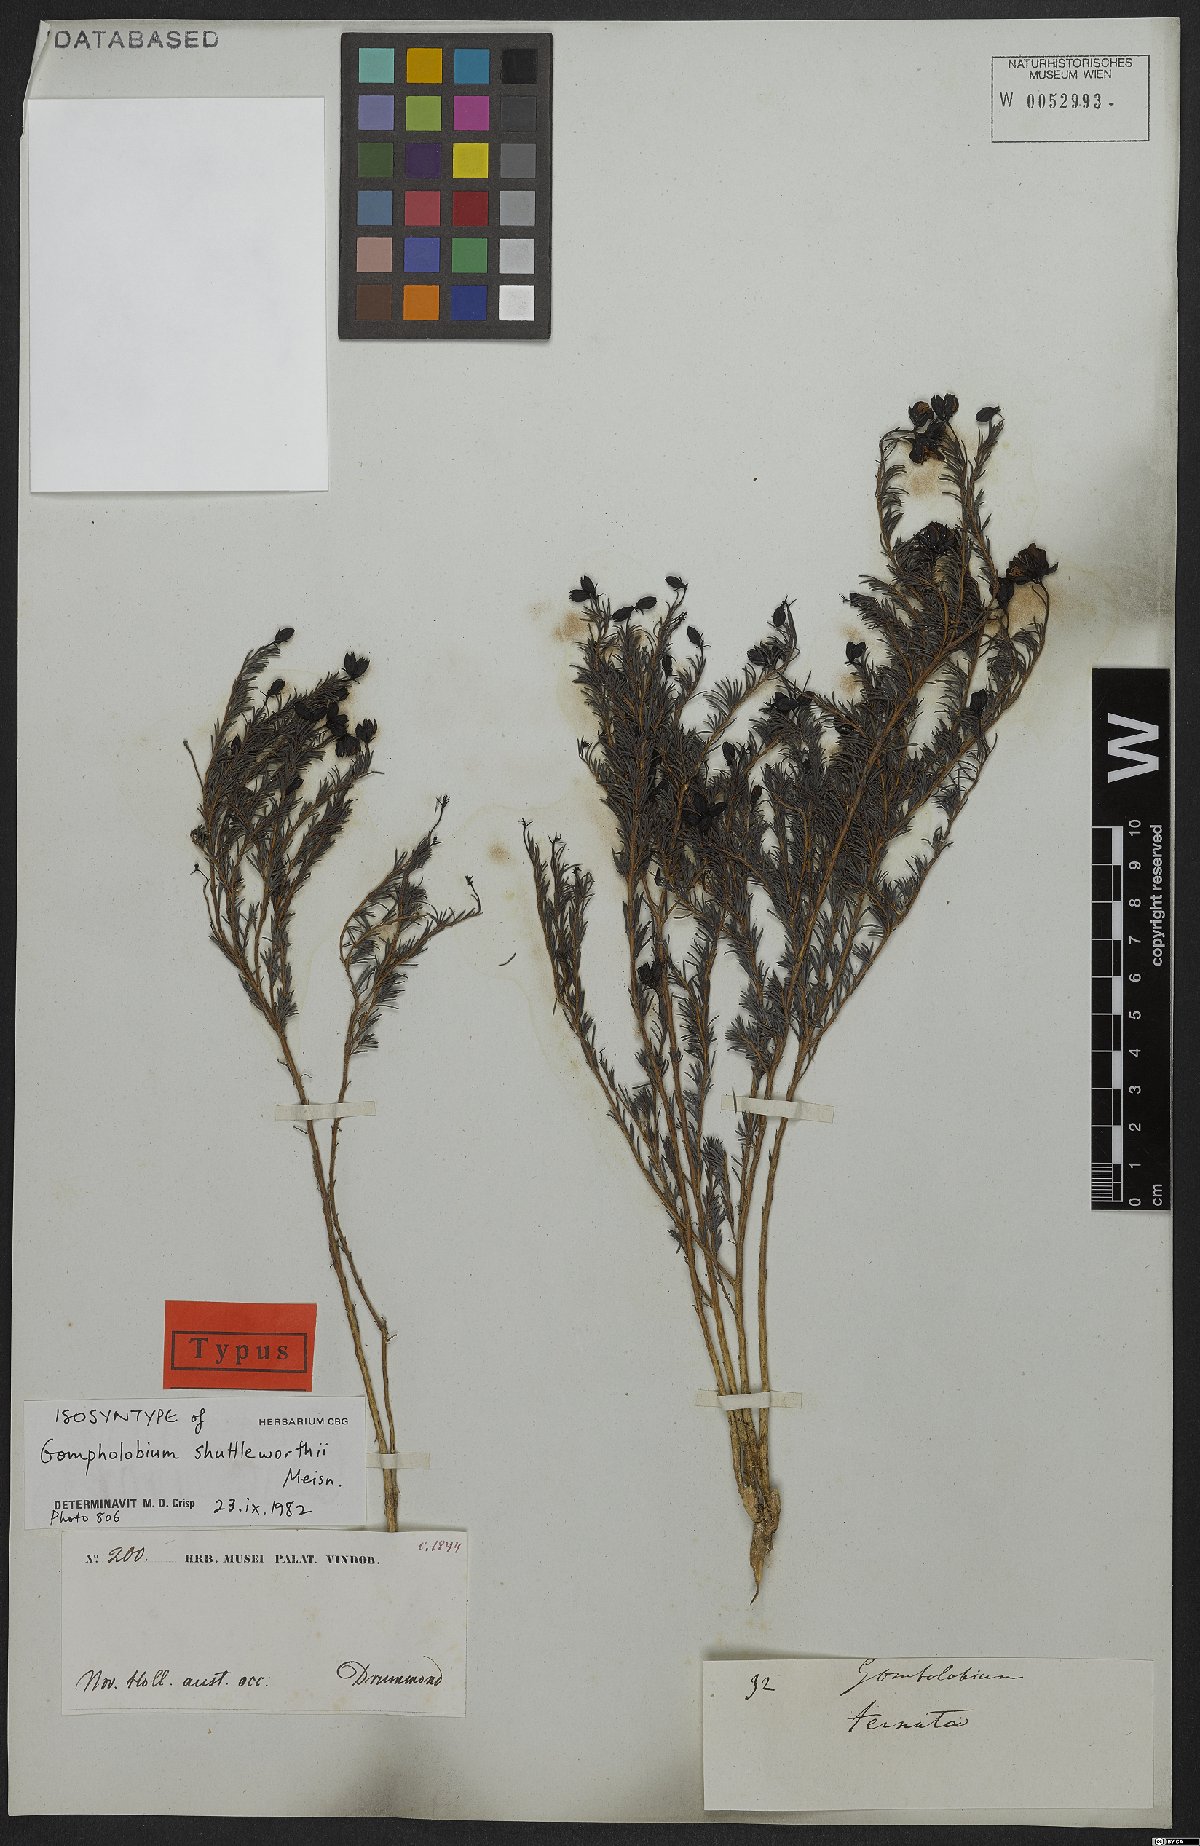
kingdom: Plantae
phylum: Tracheophyta
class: Magnoliopsida
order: Fabales
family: Fabaceae
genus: Gompholobium
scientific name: Gompholobium shuttleworthii
